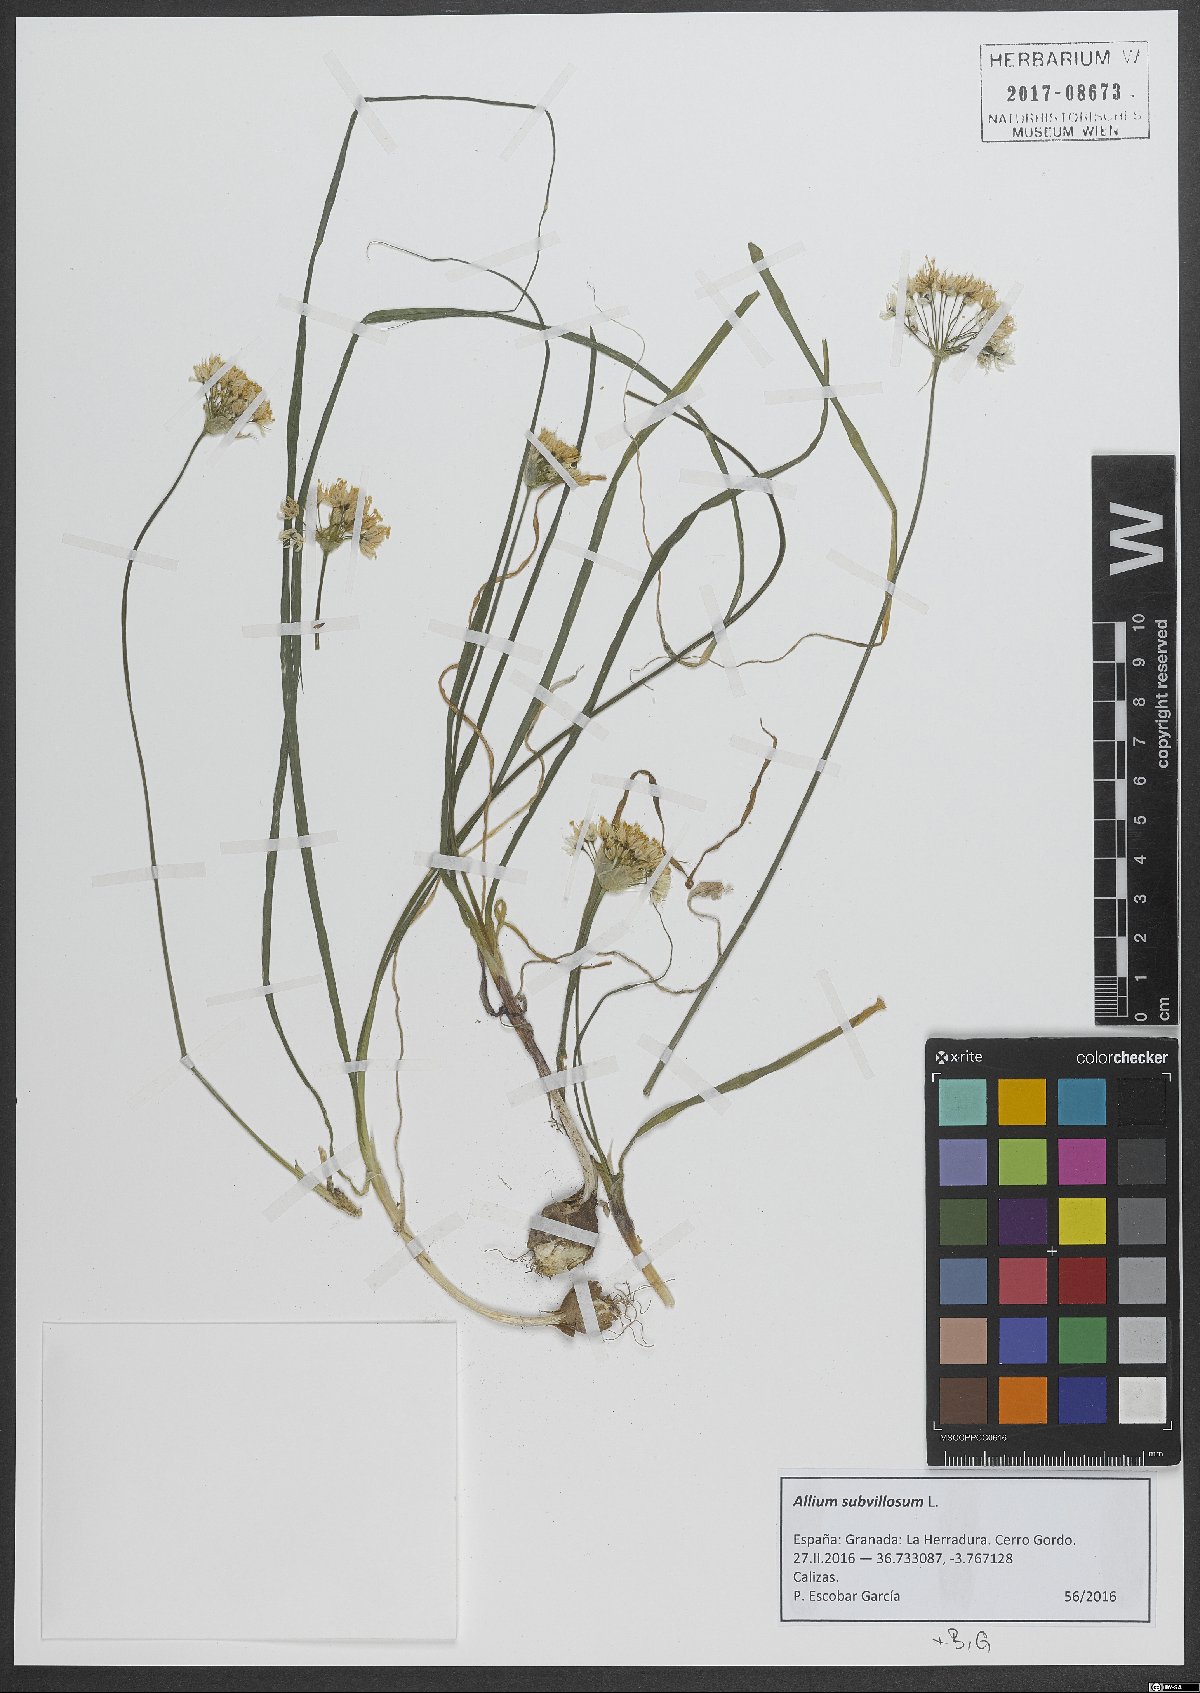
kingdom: Plantae
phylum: Tracheophyta
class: Liliopsida
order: Asparagales
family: Amaryllidaceae
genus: Allium
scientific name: Allium subvillosum
